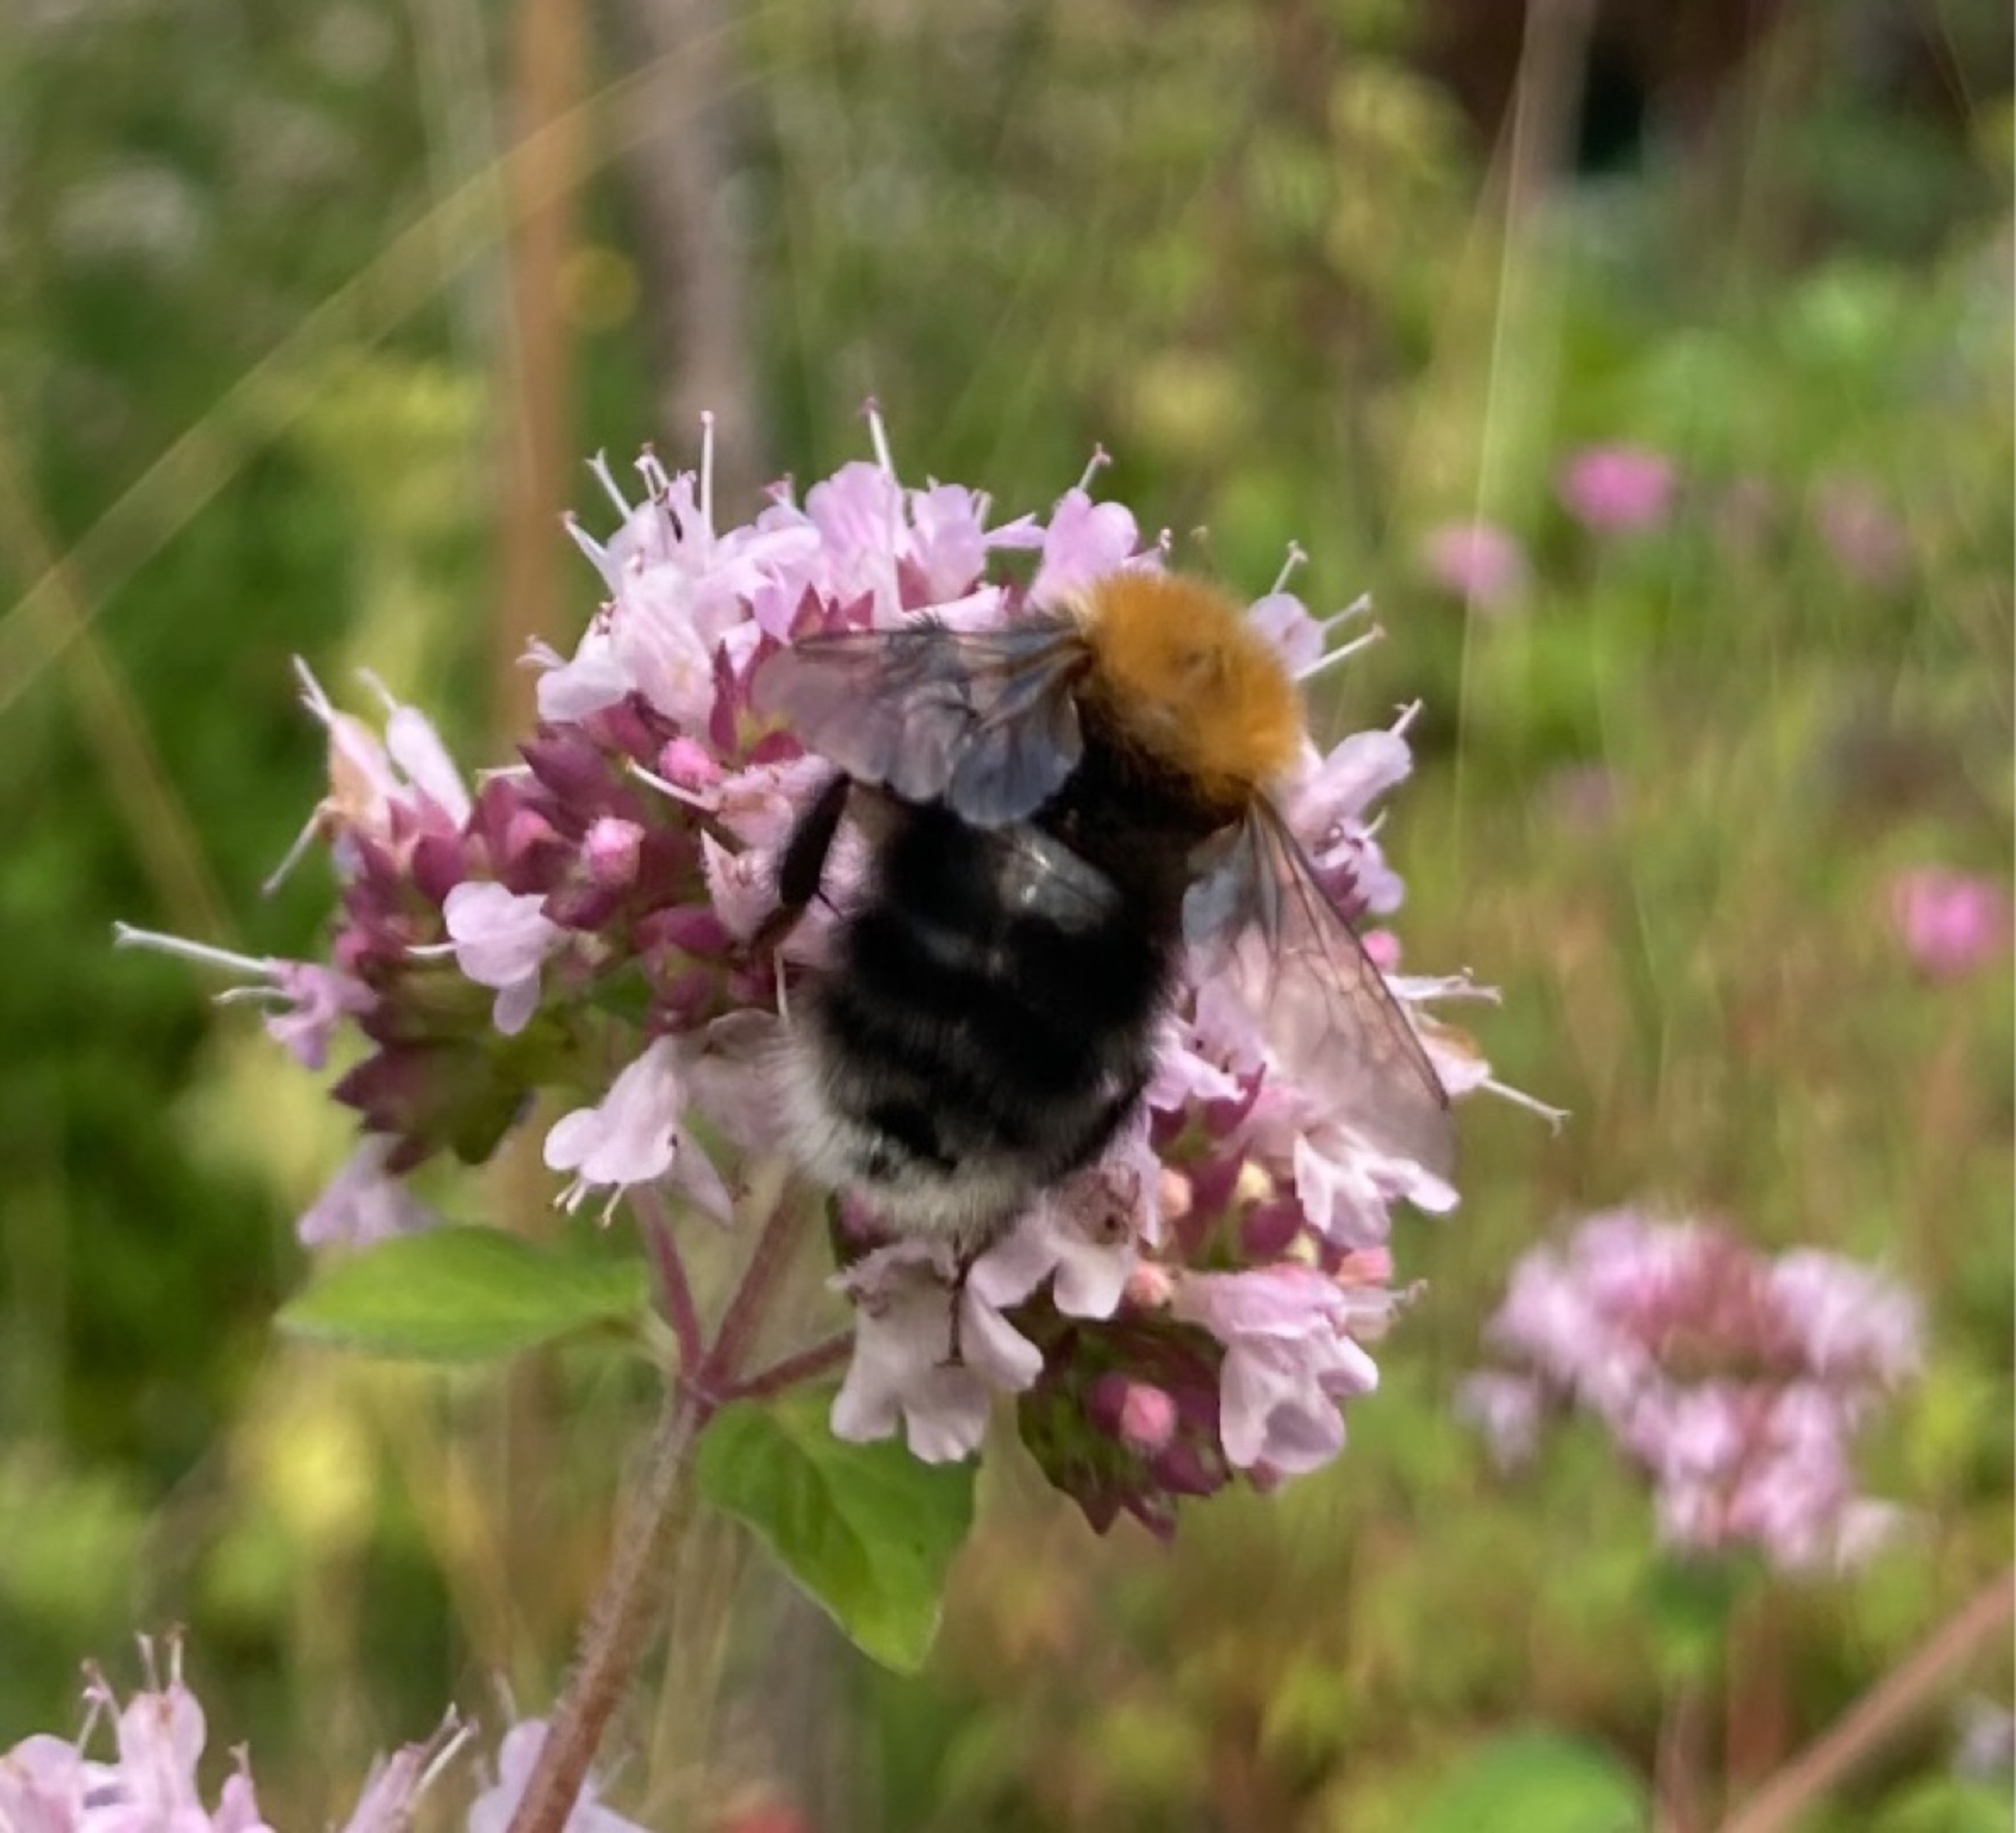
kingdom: Animalia
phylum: Arthropoda
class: Insecta
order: Hymenoptera
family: Apidae
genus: Bombus
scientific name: Bombus hypnorum
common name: Hushumle
